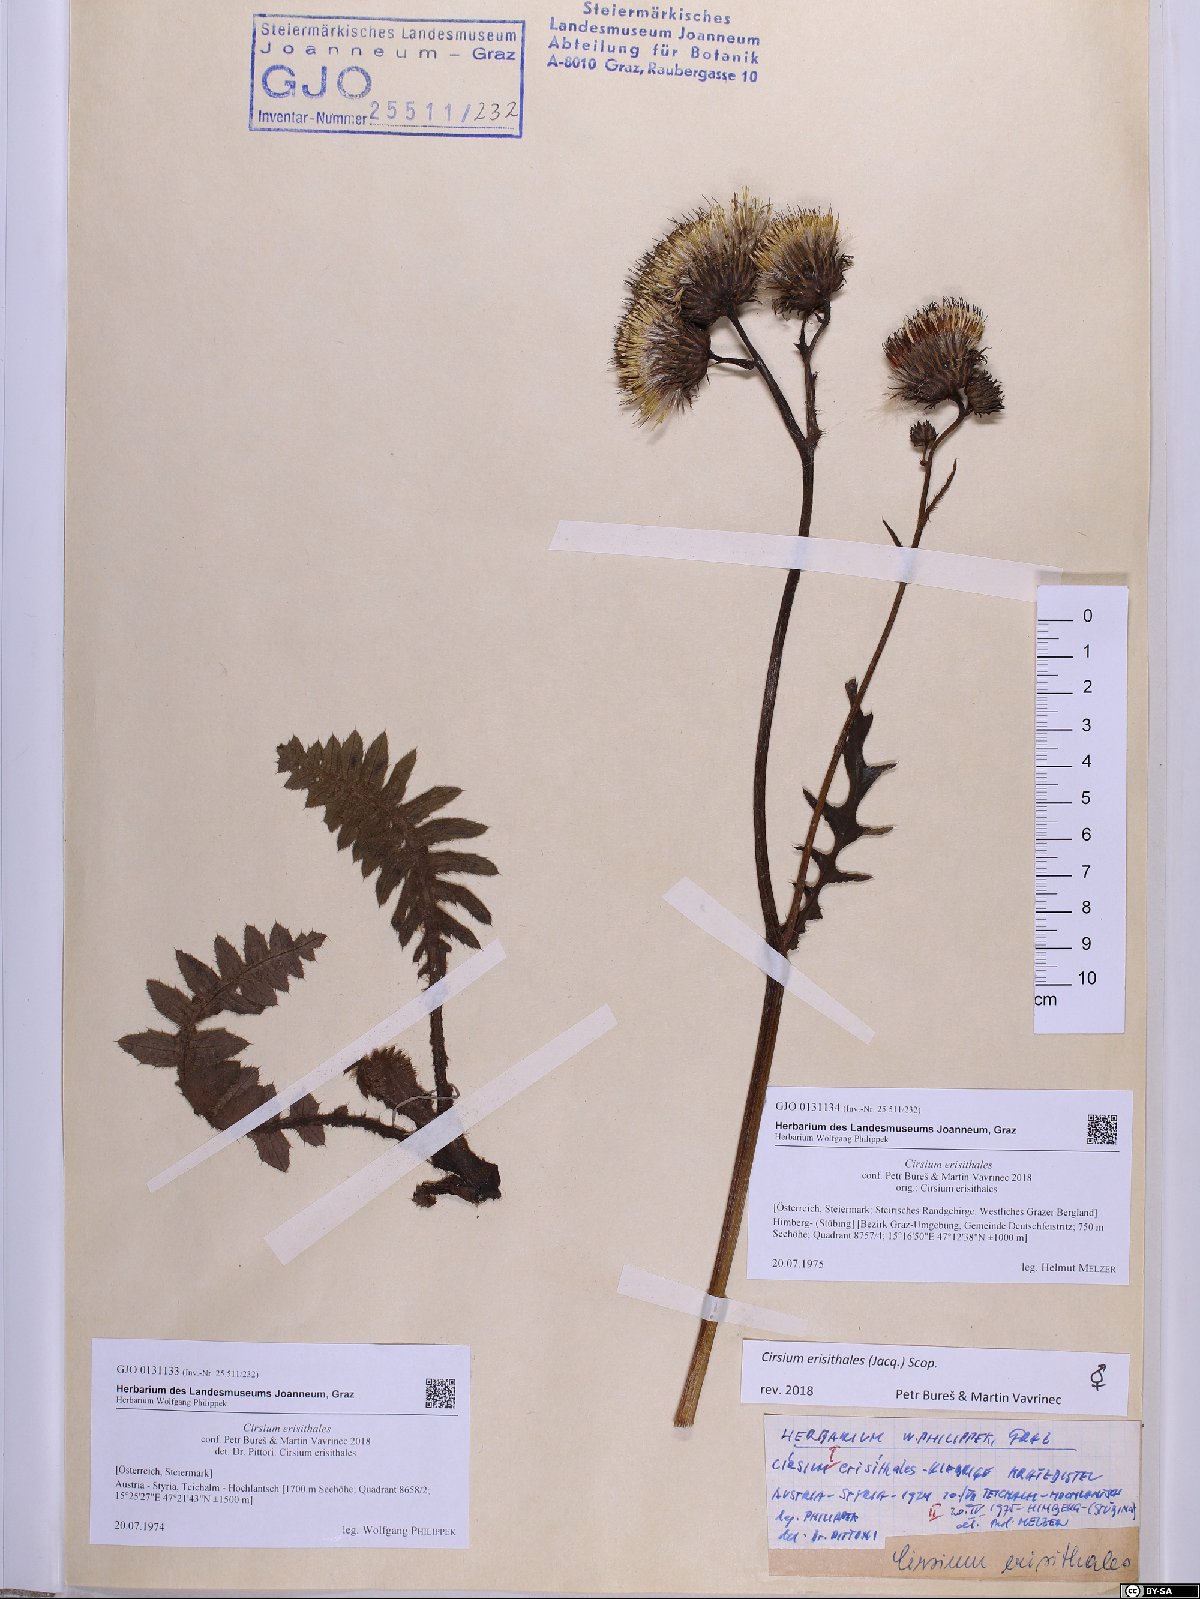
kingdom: Plantae
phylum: Tracheophyta
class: Magnoliopsida
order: Asterales
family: Asteraceae
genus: Cirsium
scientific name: Cirsium erisithales
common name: Yellow thistle
